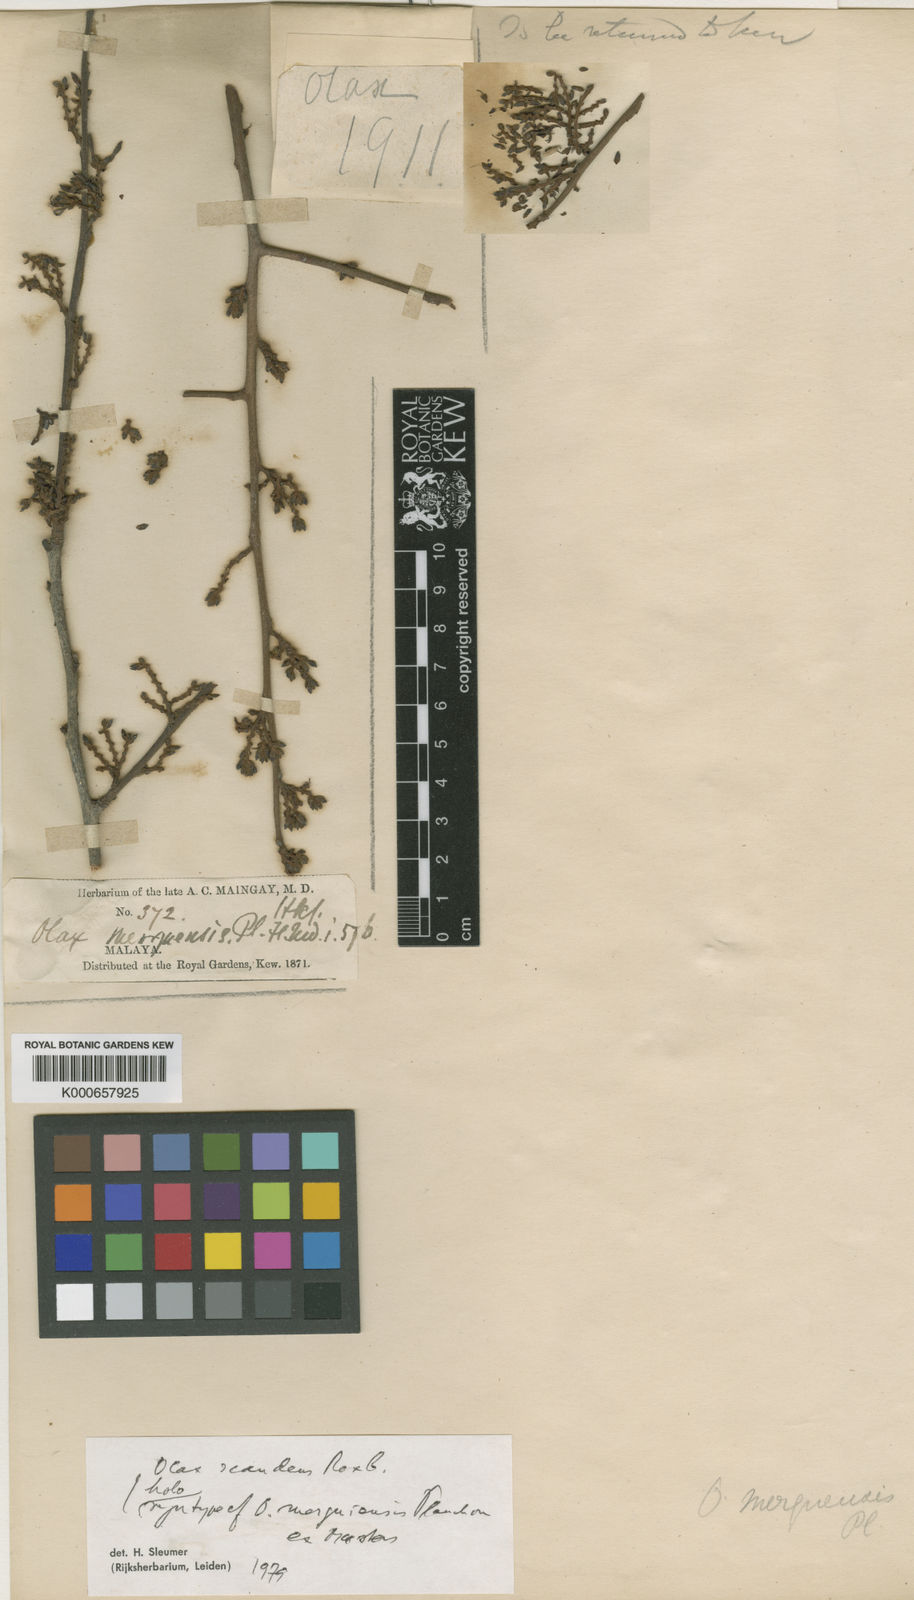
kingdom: Plantae
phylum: Tracheophyta
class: Magnoliopsida
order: Santalales
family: Olacaceae
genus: Olax
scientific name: Olax psittacorum
